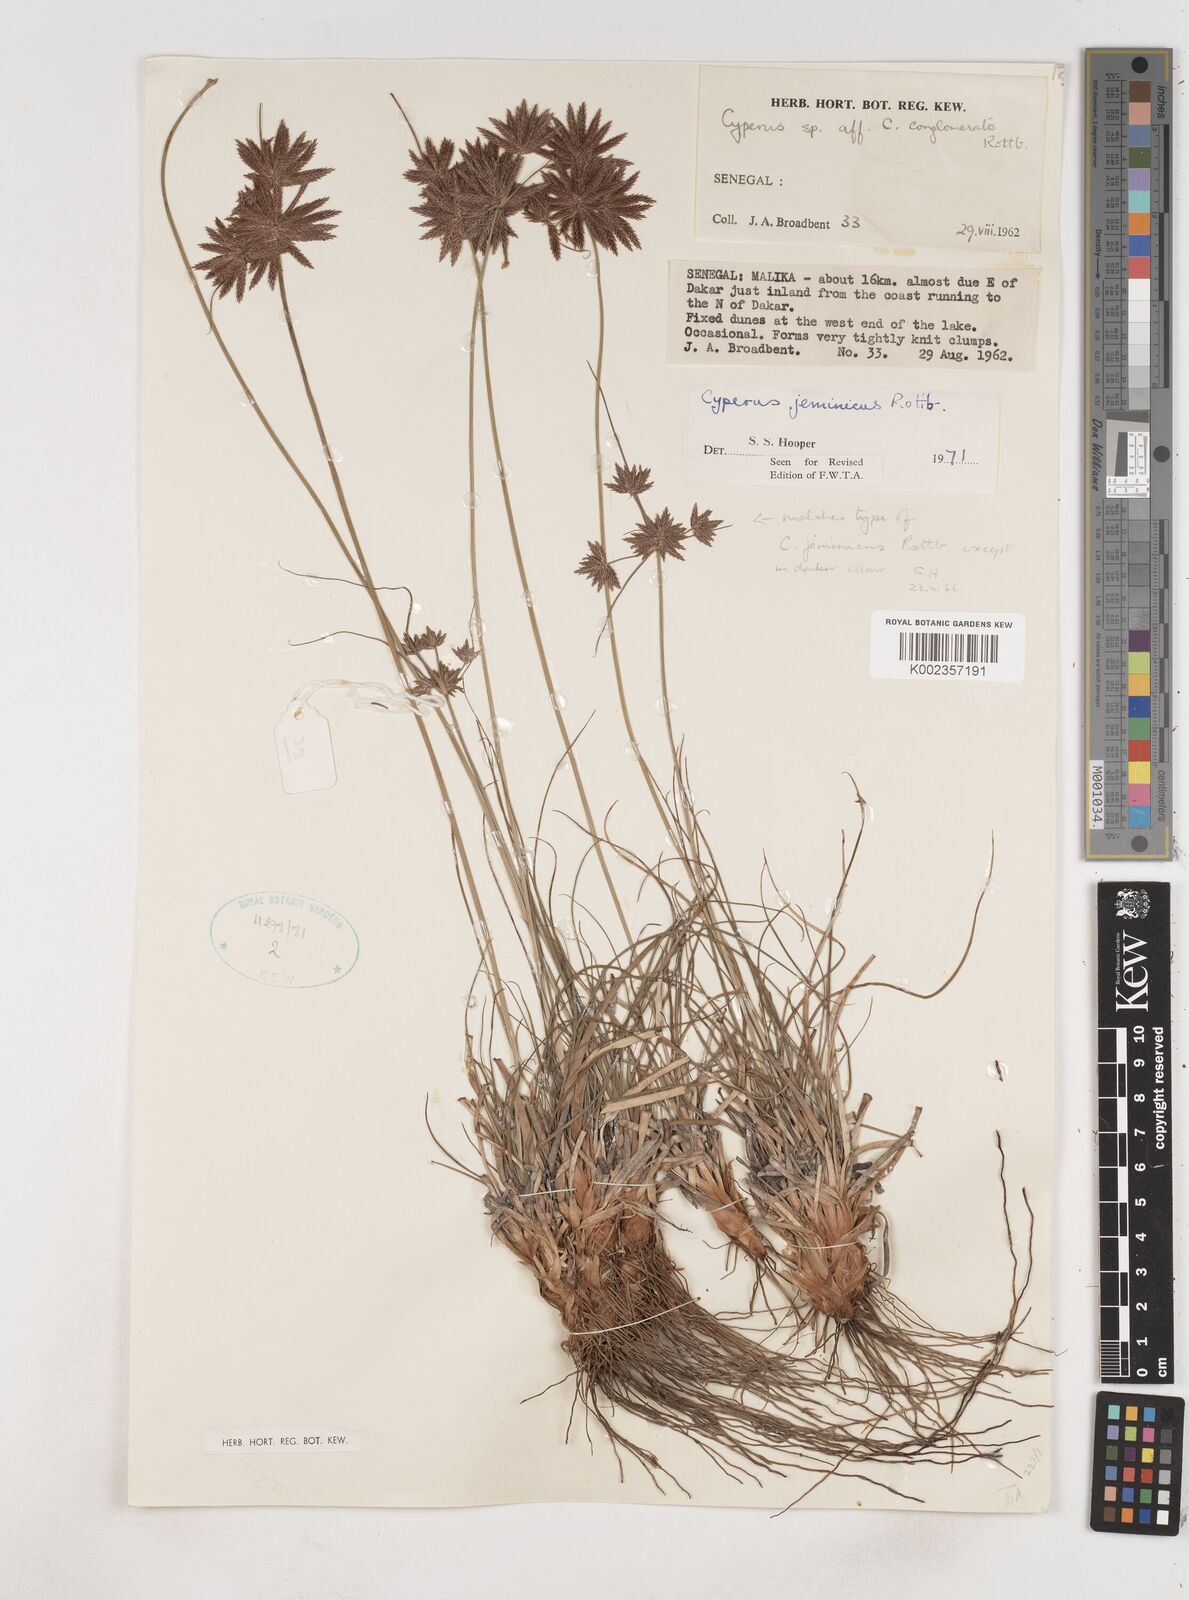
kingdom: Plantae
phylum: Tracheophyta
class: Liliopsida
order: Poales
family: Cyperaceae
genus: Cyperus
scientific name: Cyperus jeminicus
